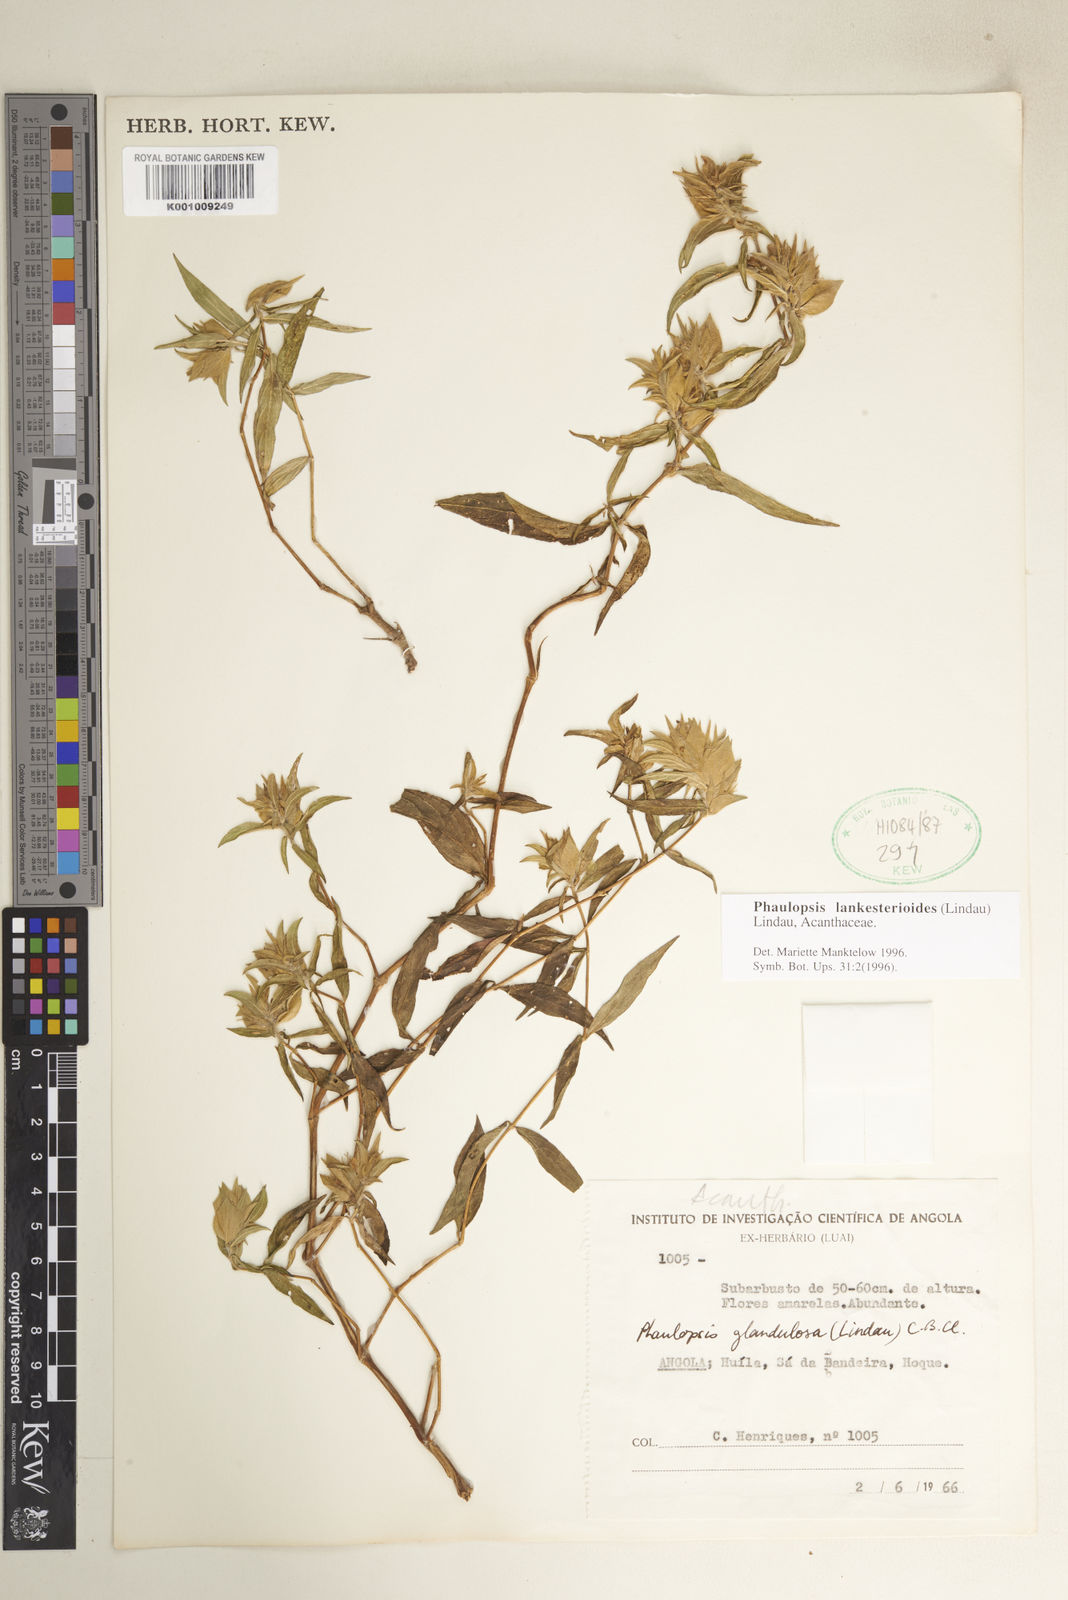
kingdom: Plantae
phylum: Tracheophyta
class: Magnoliopsida
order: Lamiales
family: Acanthaceae
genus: Phaulopsis
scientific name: Phaulopsis lankesterioides
